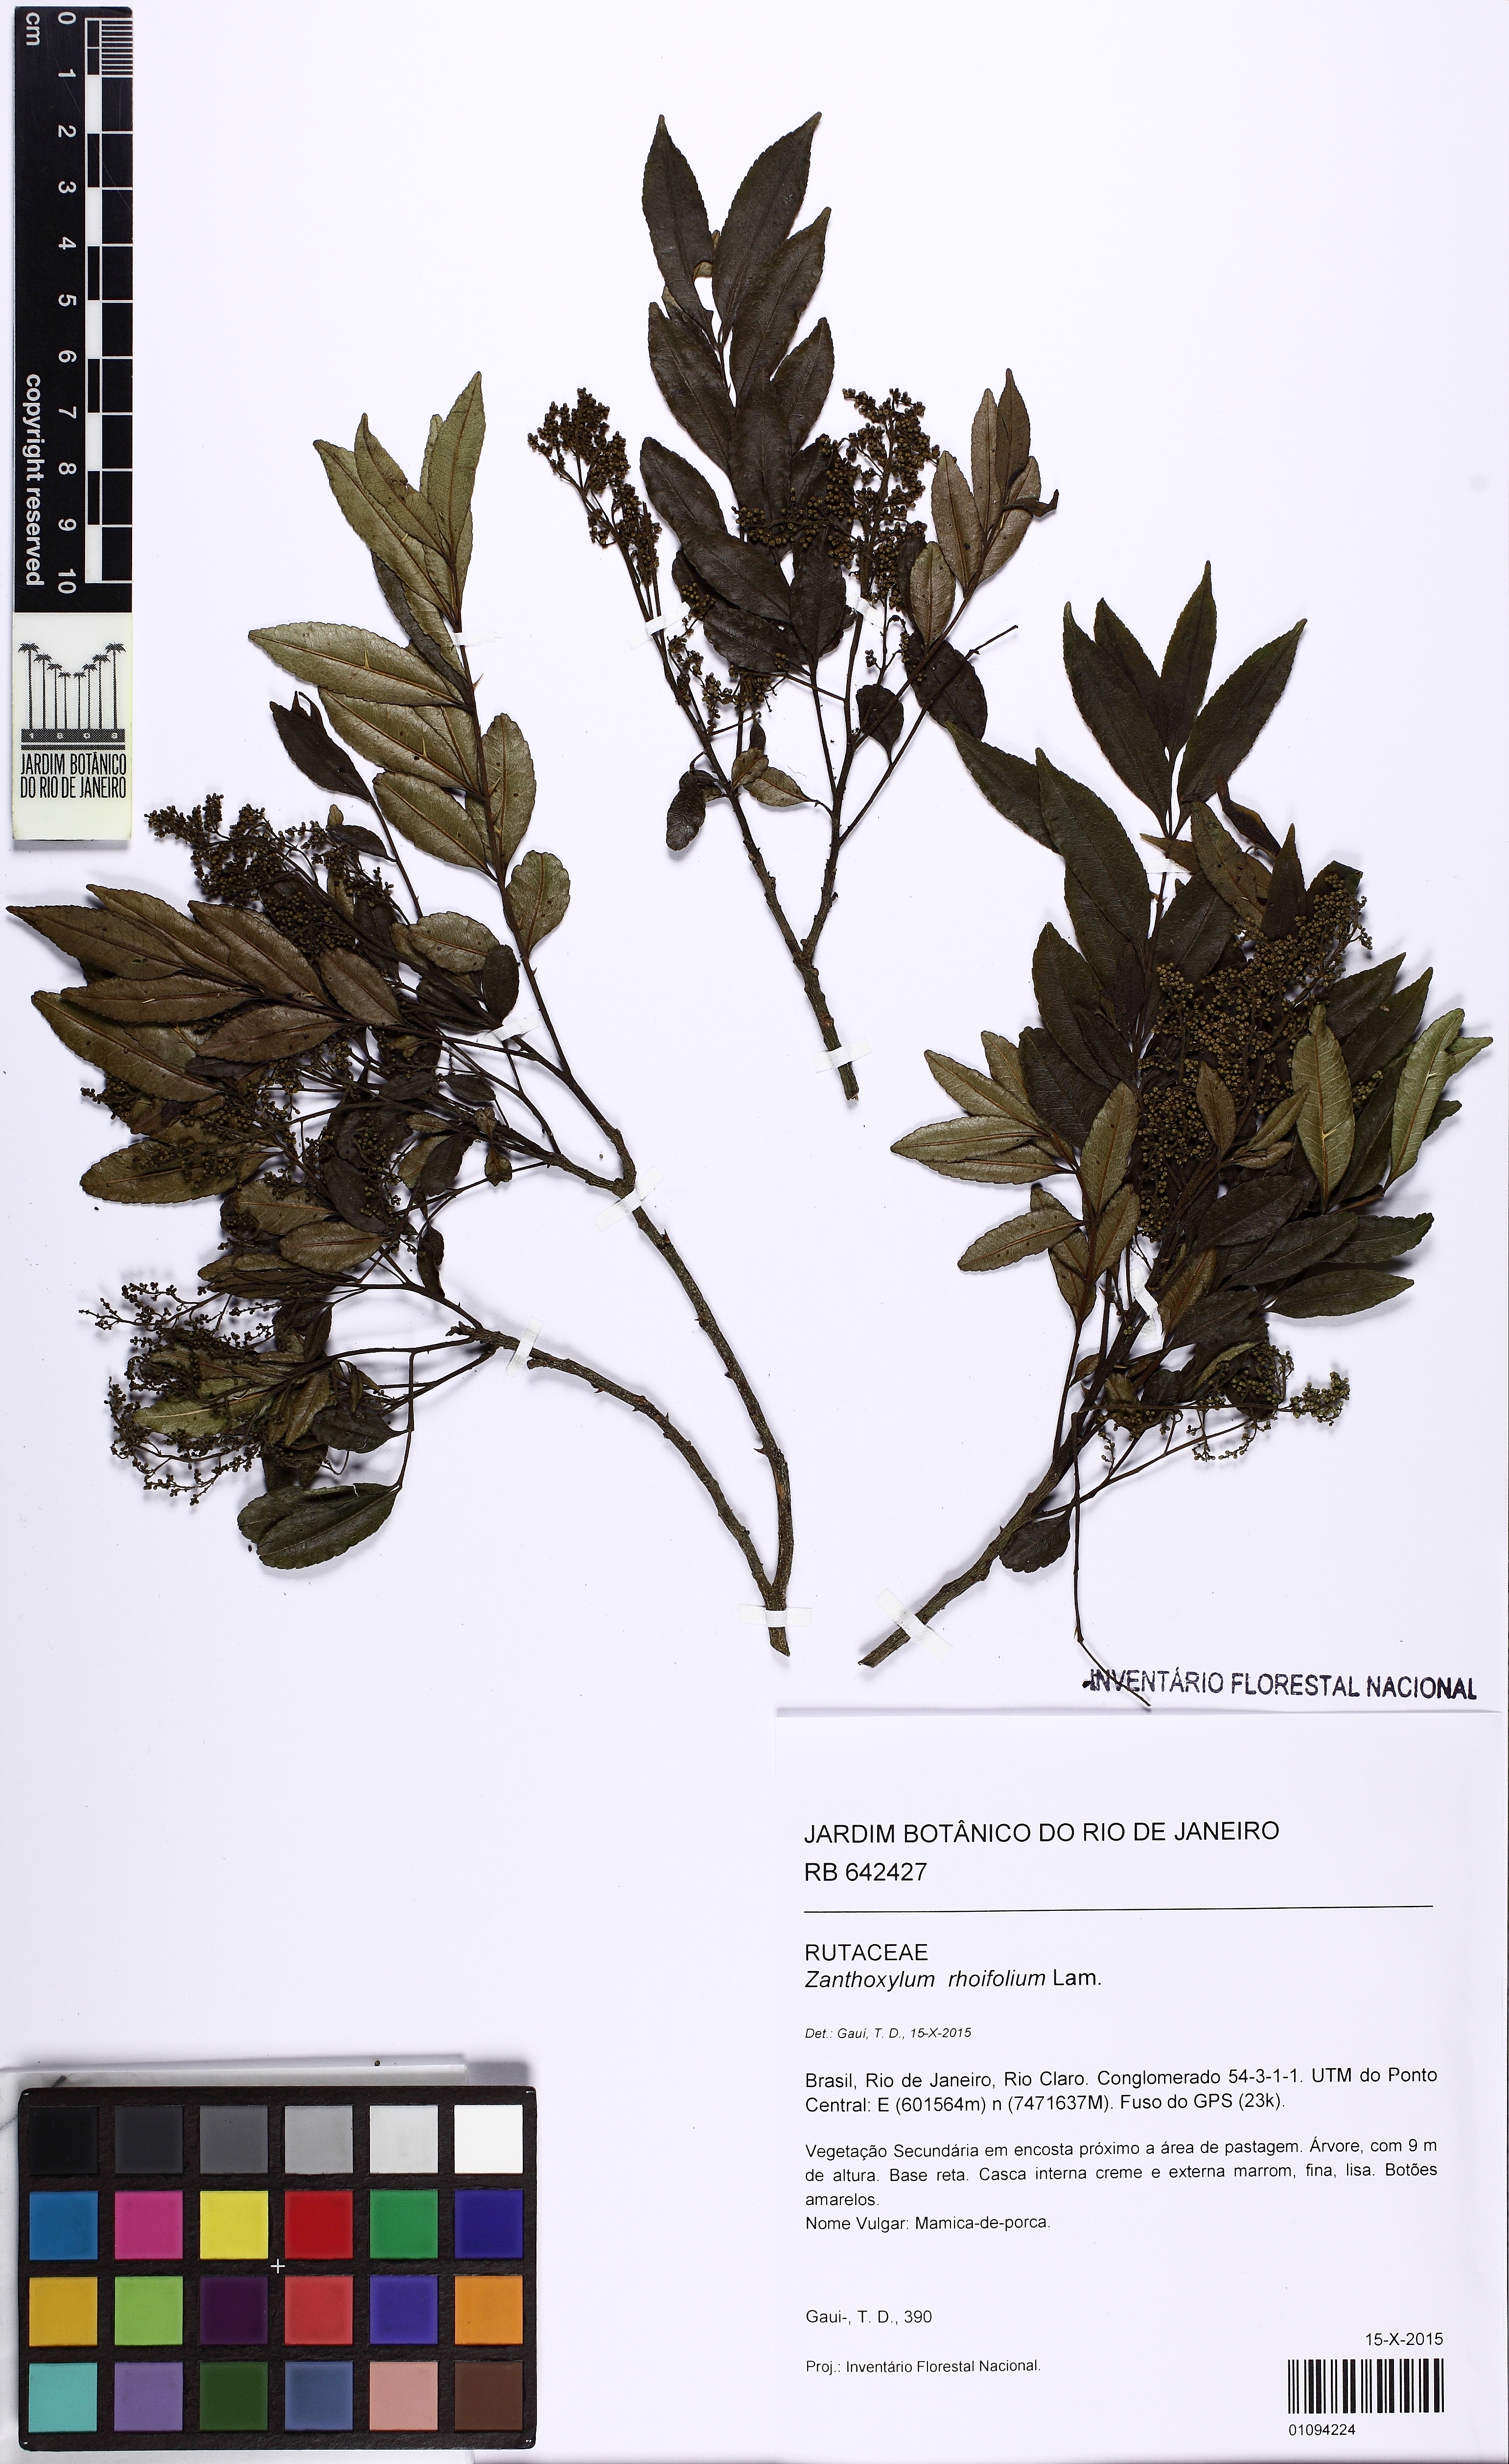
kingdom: Plantae
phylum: Tracheophyta
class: Magnoliopsida
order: Sapindales
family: Rutaceae
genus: Zanthoxylum
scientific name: Zanthoxylum rhoifolium
